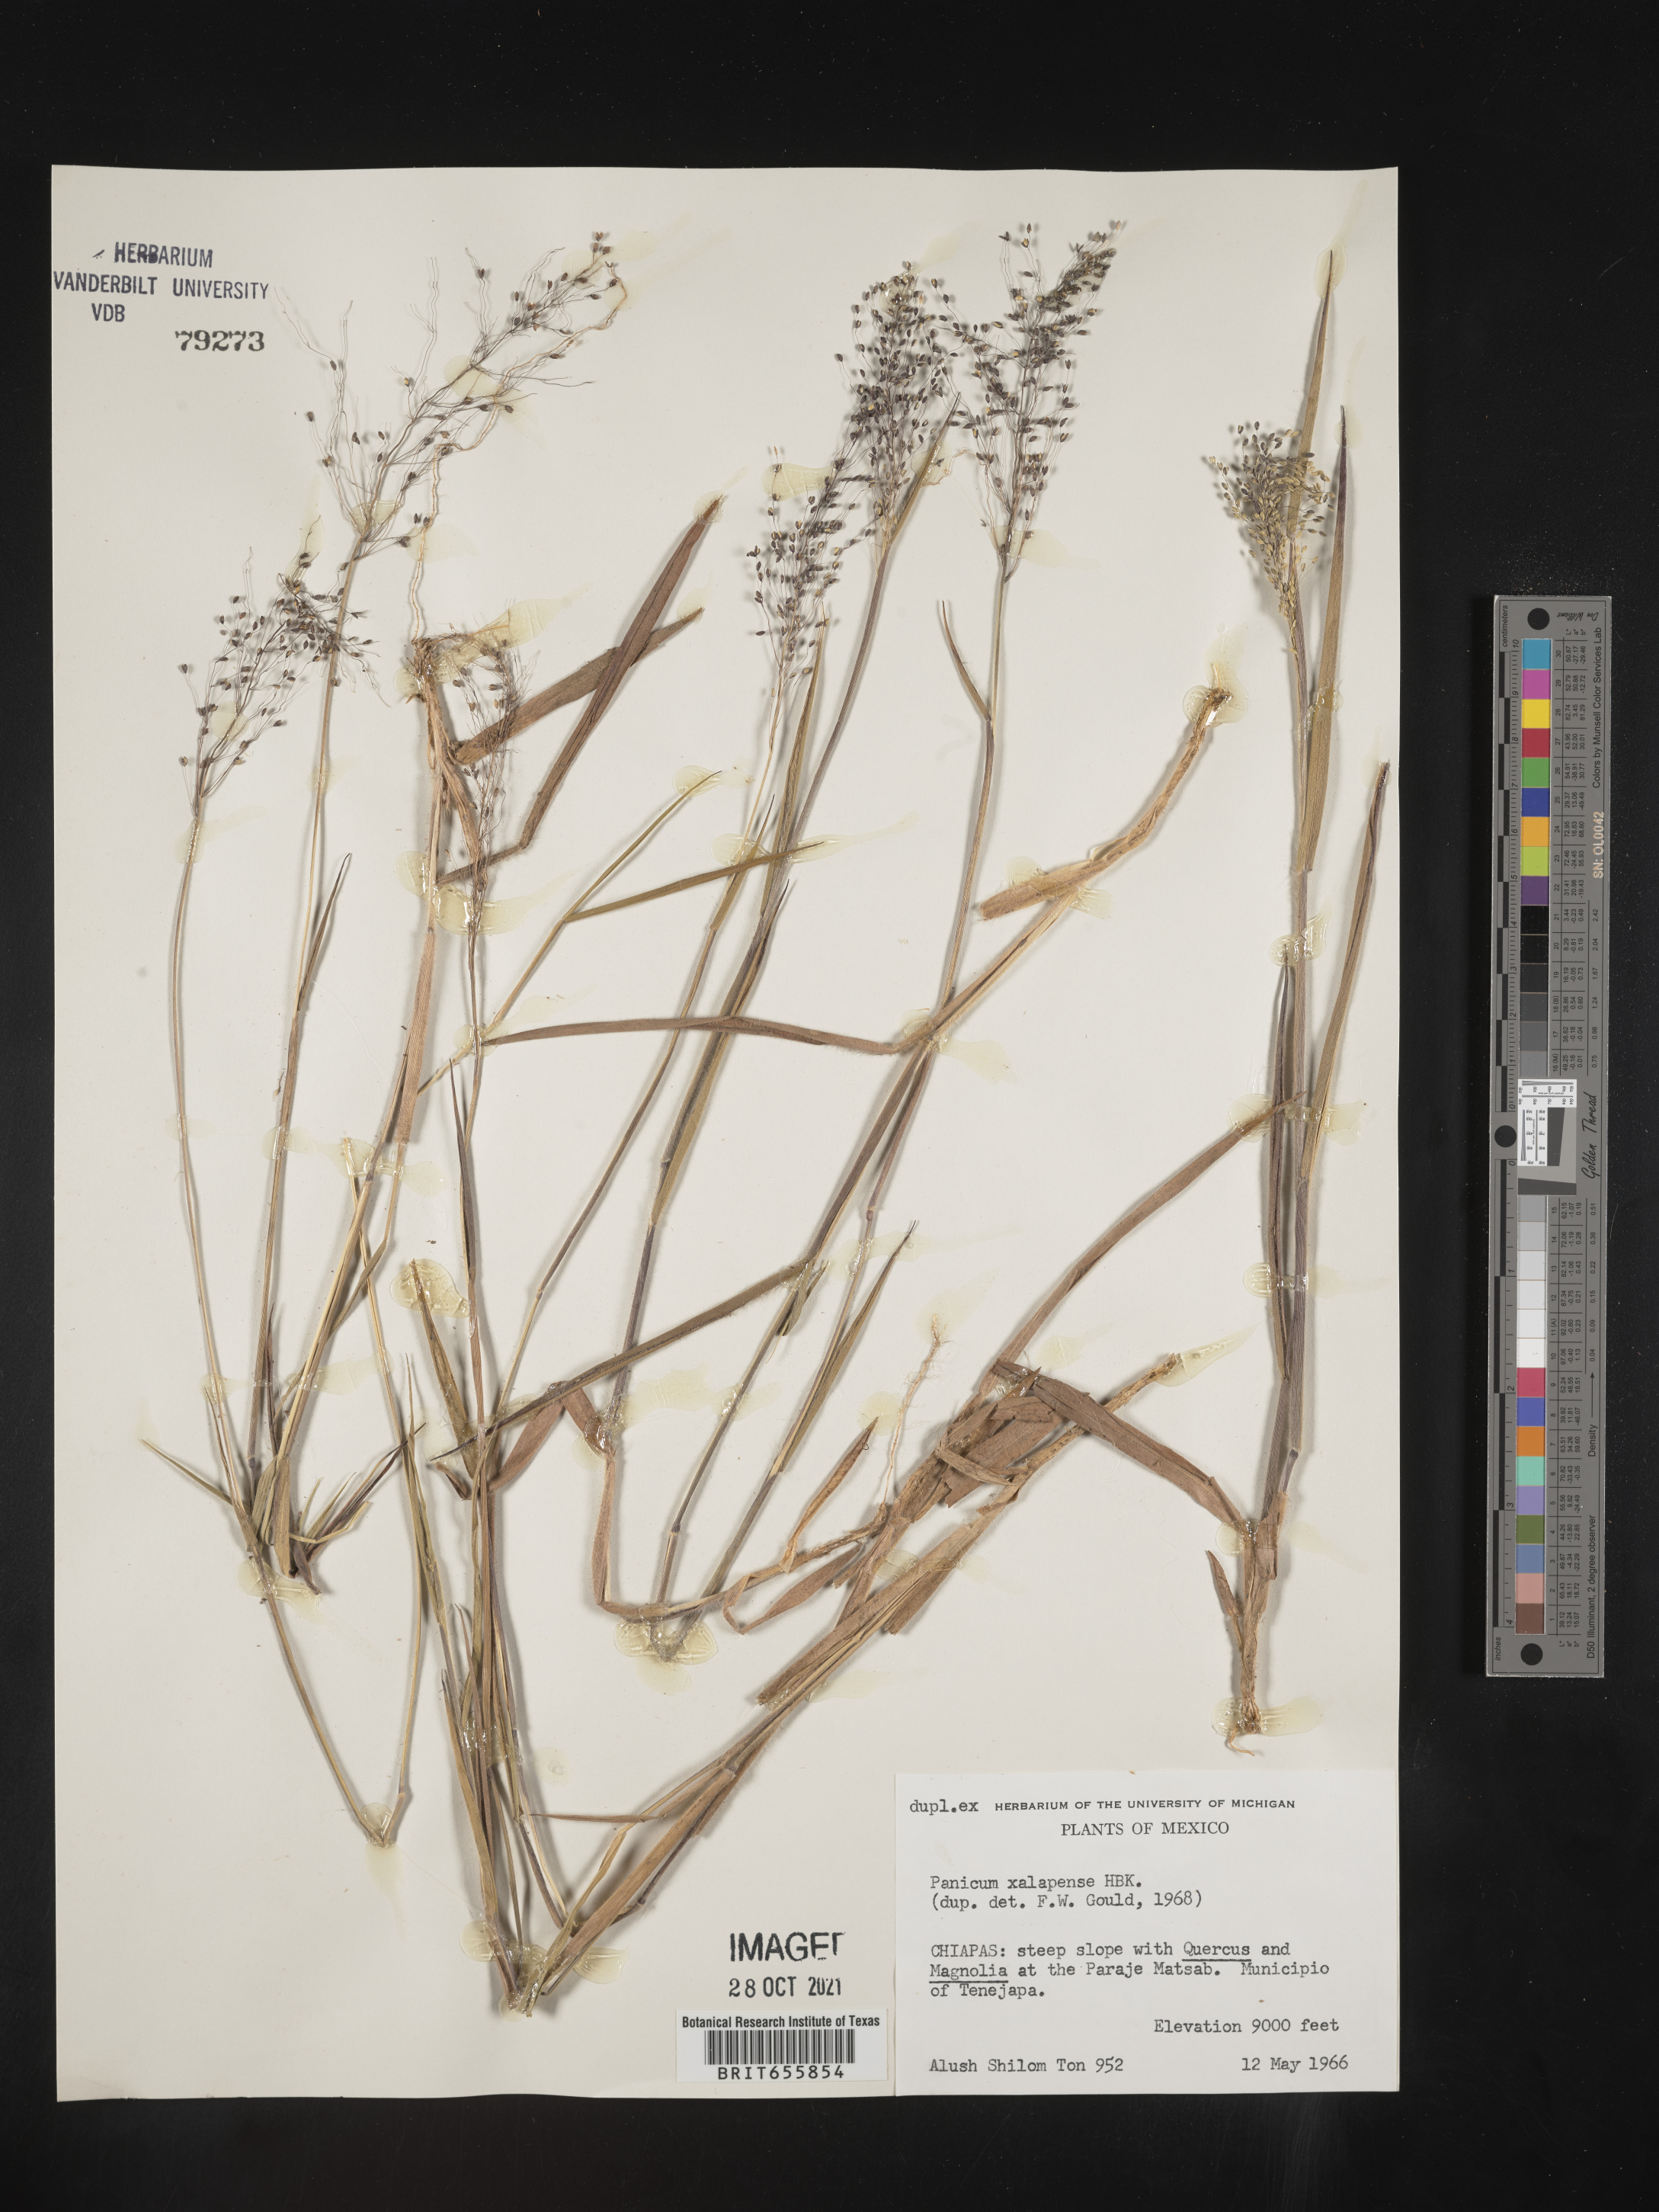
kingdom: Plantae
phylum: Tracheophyta
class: Liliopsida
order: Poales
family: Poaceae
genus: Panicum
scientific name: Panicum
